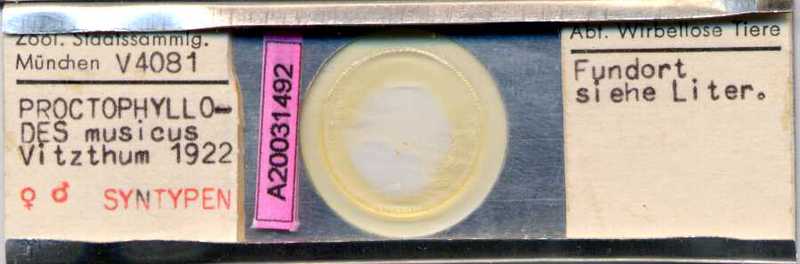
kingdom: Animalia
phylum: Arthropoda
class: Arachnida
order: Sarcoptiformes
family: Proctophyllodidae
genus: Proctophyllodes
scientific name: Proctophyllodes musicus
